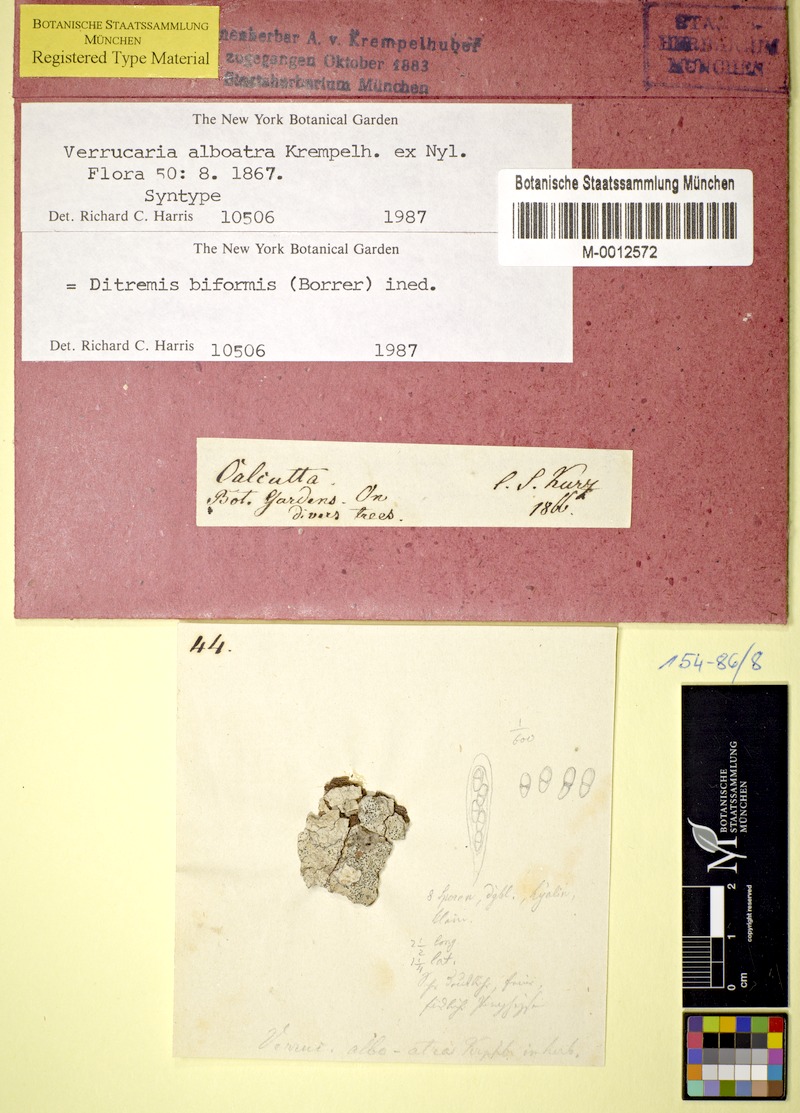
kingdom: Fungi
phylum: Ascomycota
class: Dothideomycetes
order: Monoblastiales
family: Monoblastiaceae
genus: Anisomeridium
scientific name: Anisomeridium biforme
